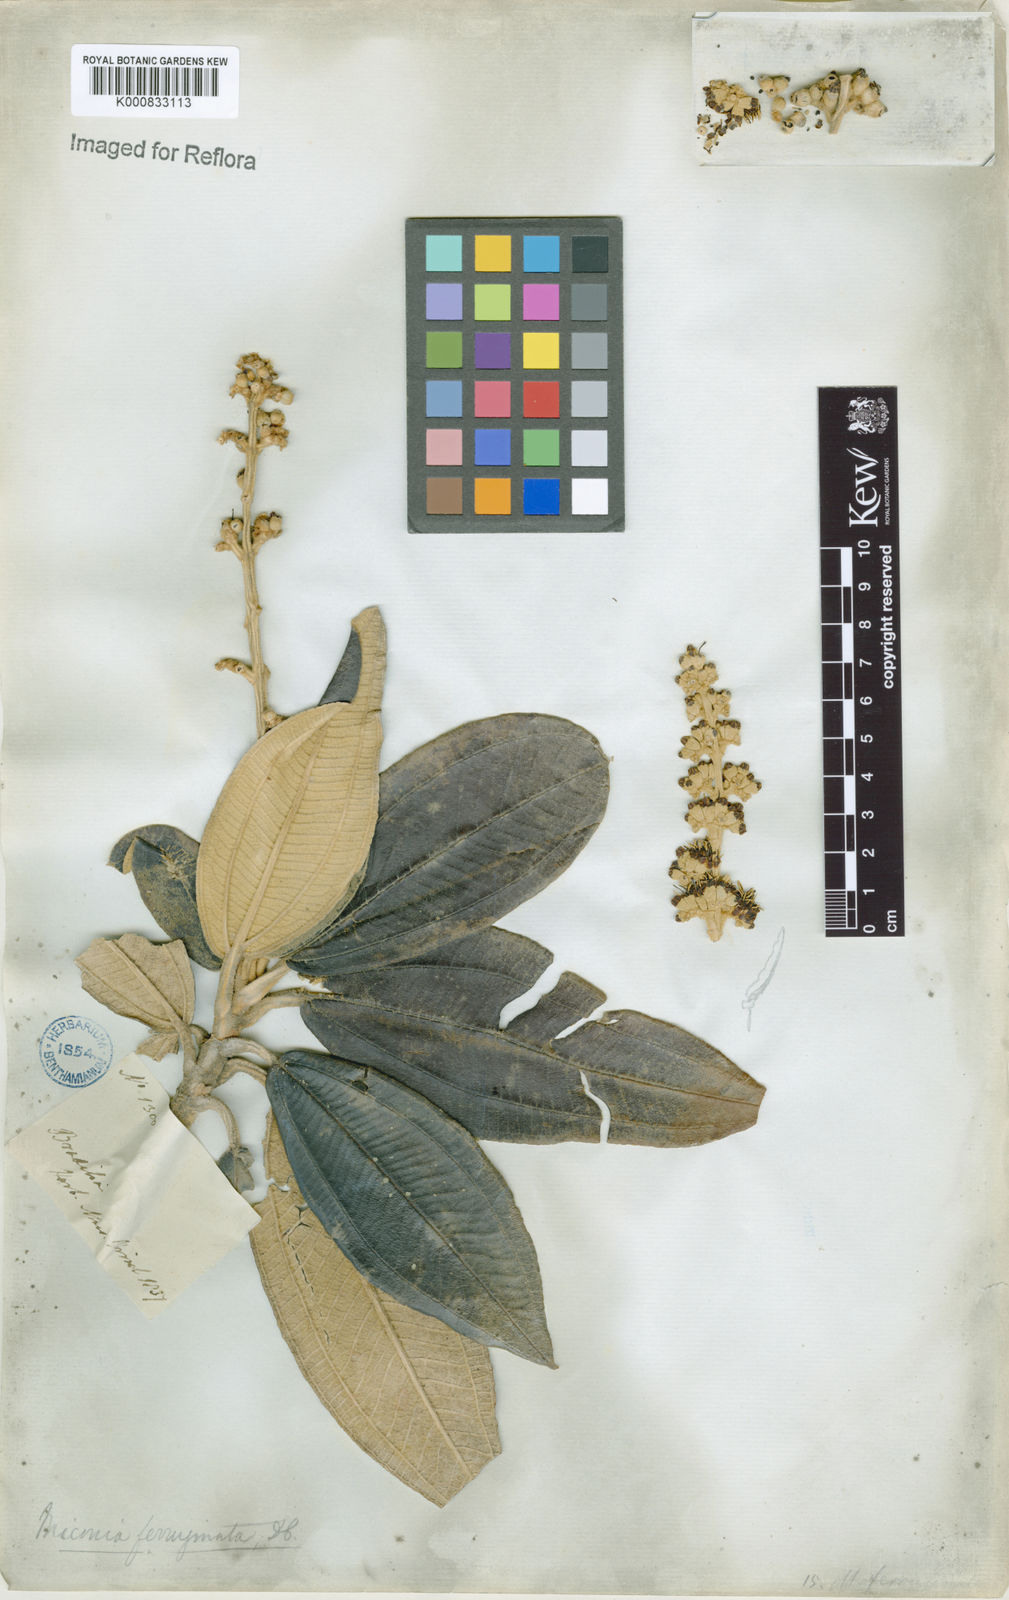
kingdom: Plantae
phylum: Tracheophyta
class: Magnoliopsida
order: Myrtales
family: Melastomataceae
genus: Miconia
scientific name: Miconia ferruginata
